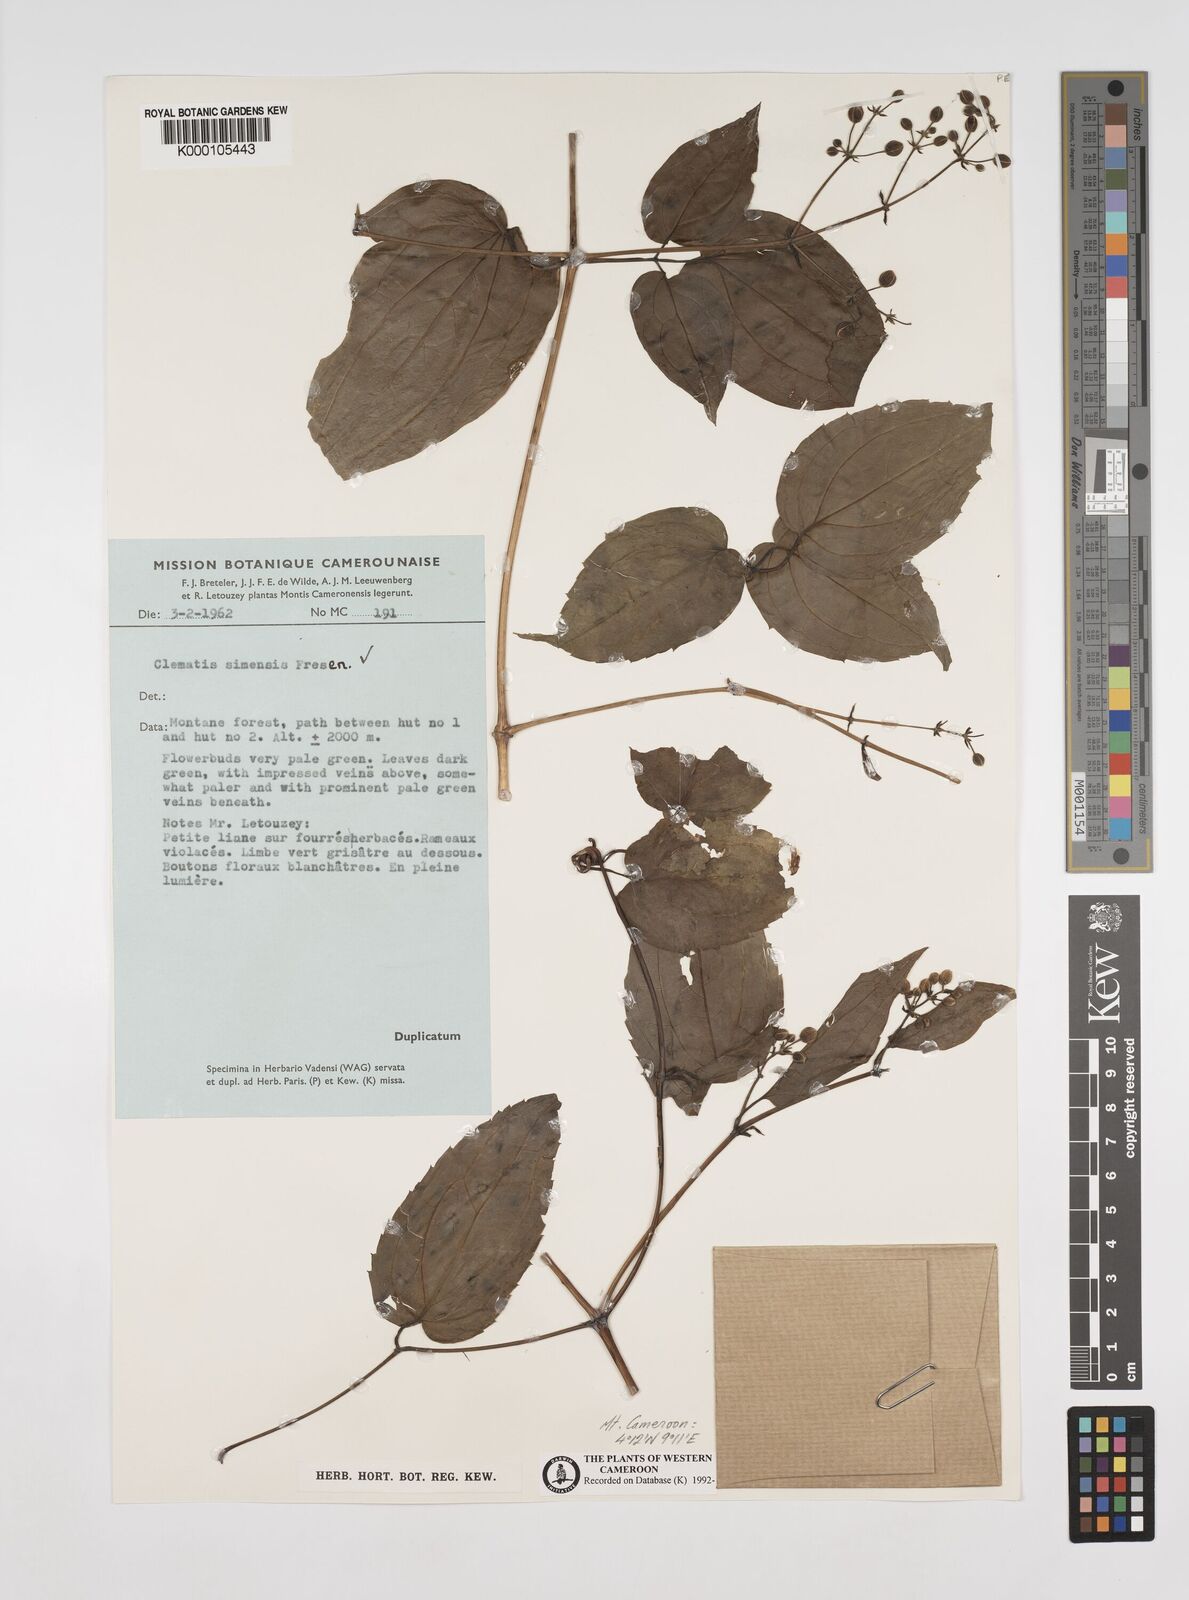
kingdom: Plantae
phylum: Tracheophyta
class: Magnoliopsida
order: Ranunculales
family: Ranunculaceae
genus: Clematis
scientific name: Clematis simensis
